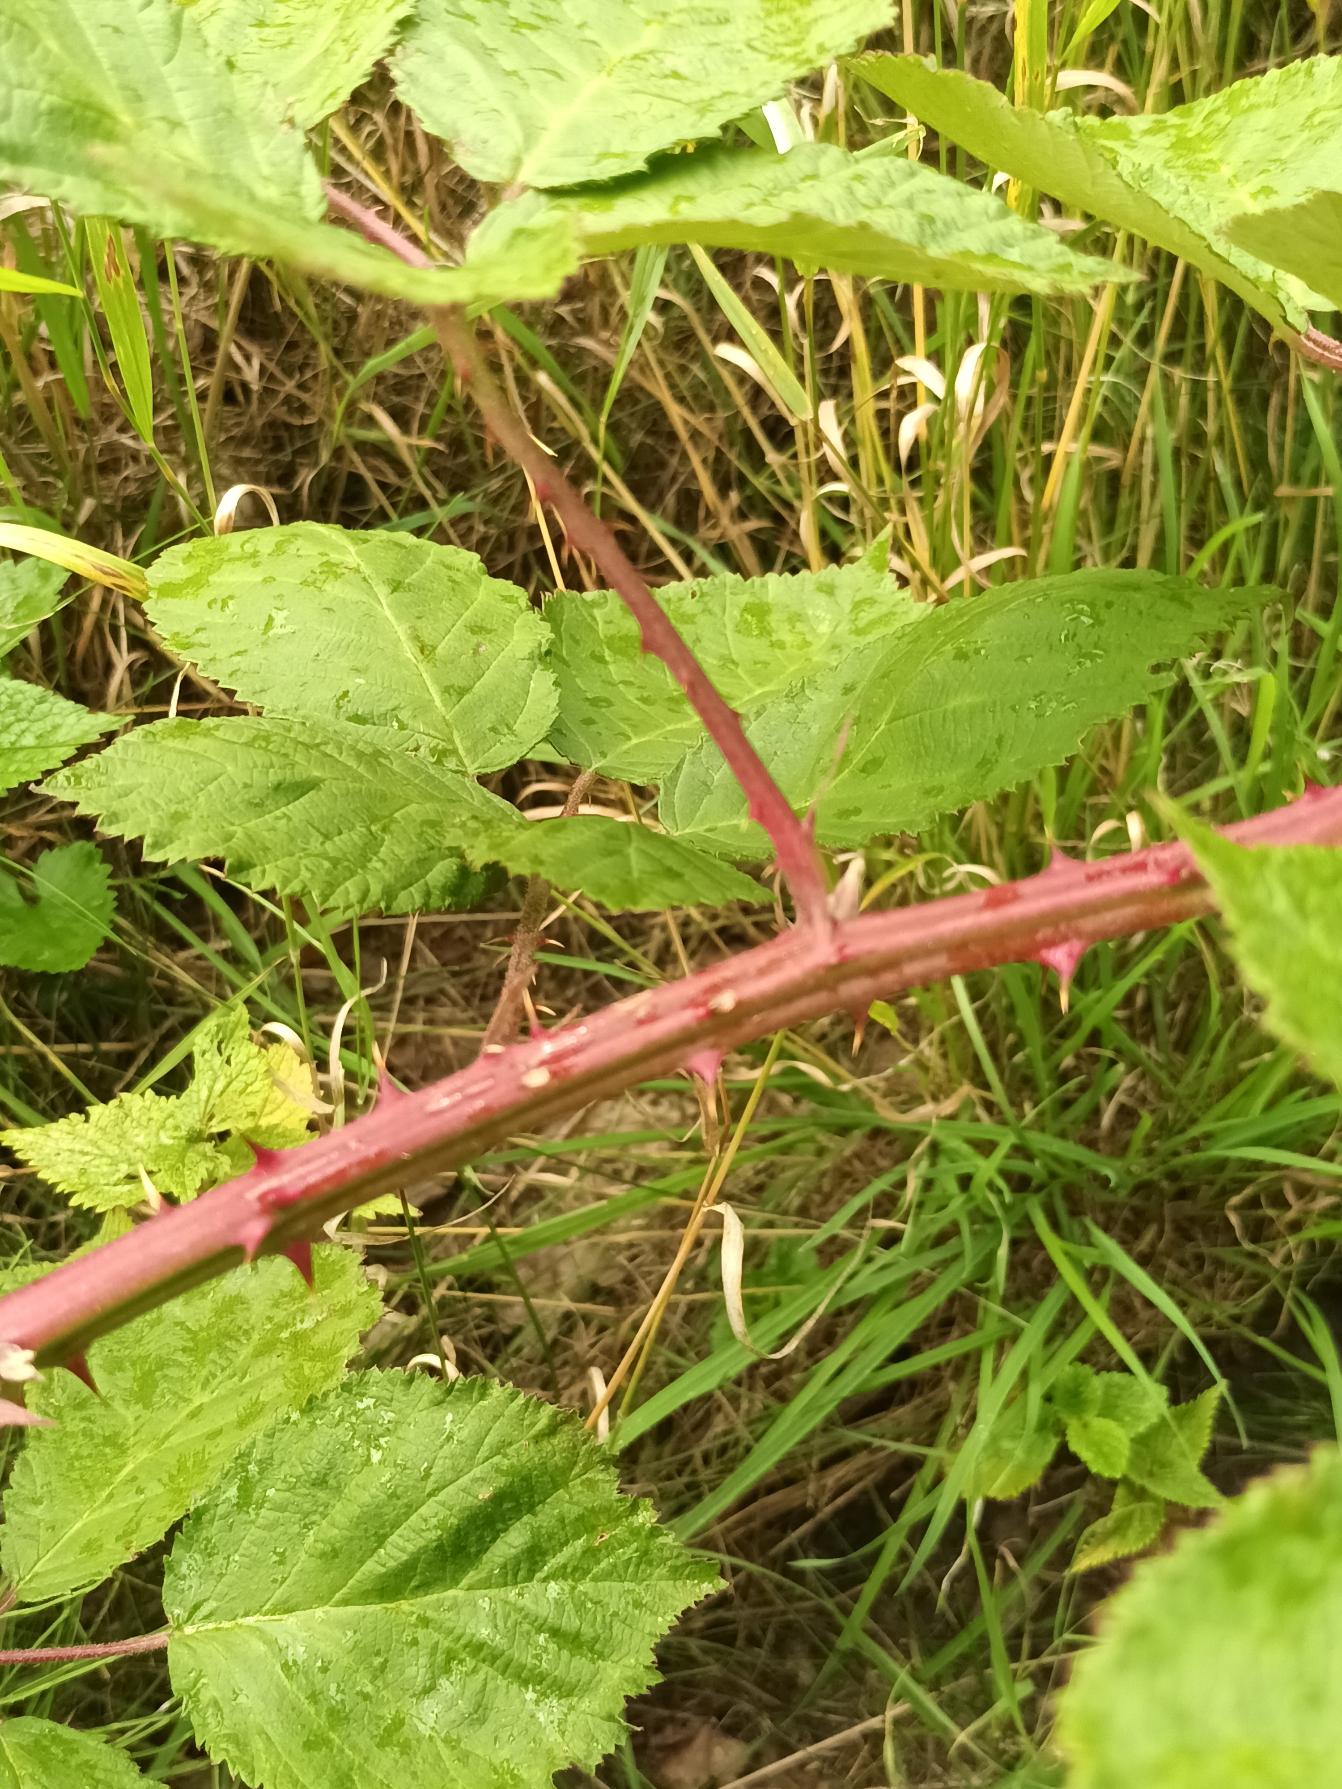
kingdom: Plantae
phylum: Tracheophyta
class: Magnoliopsida
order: Rosales
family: Rosaceae
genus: Rubus
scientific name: Rubus armeniacus
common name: Armensk brombær
